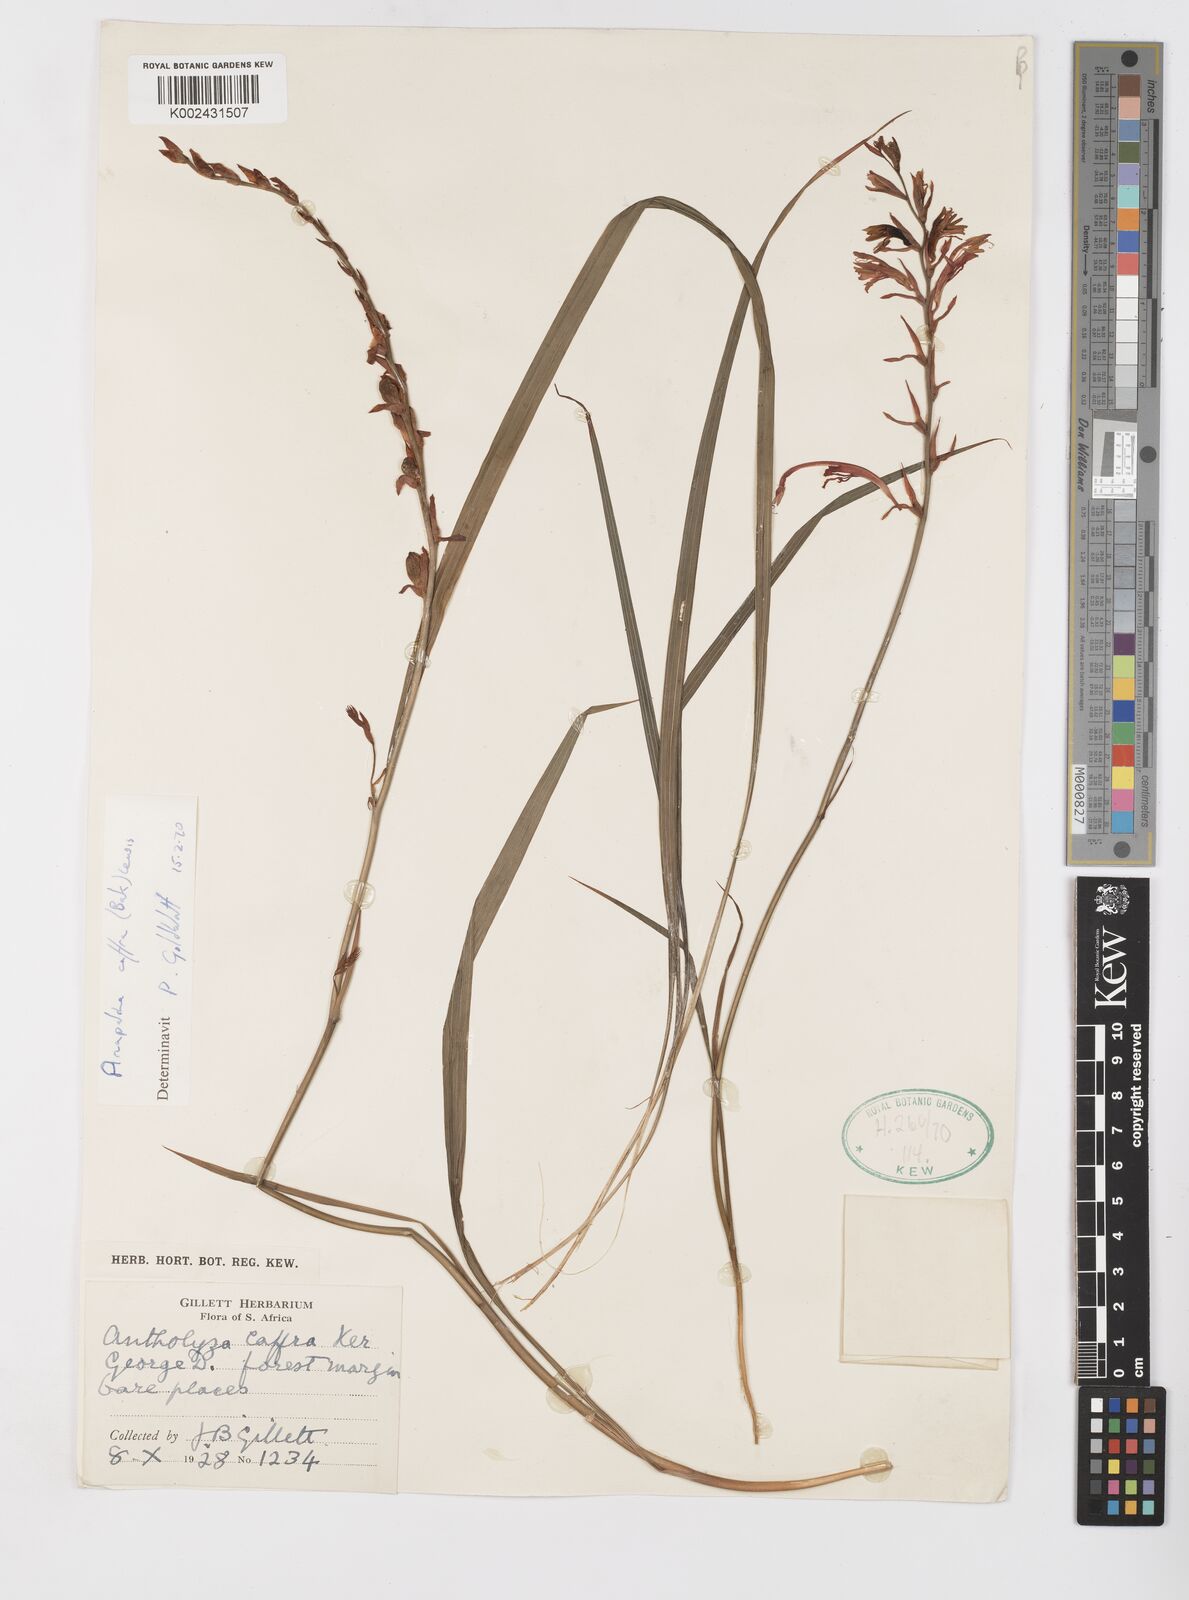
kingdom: Plantae
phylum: Tracheophyta
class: Liliopsida
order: Asparagales
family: Iridaceae
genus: Tritoniopsis
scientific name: Tritoniopsis caffra
